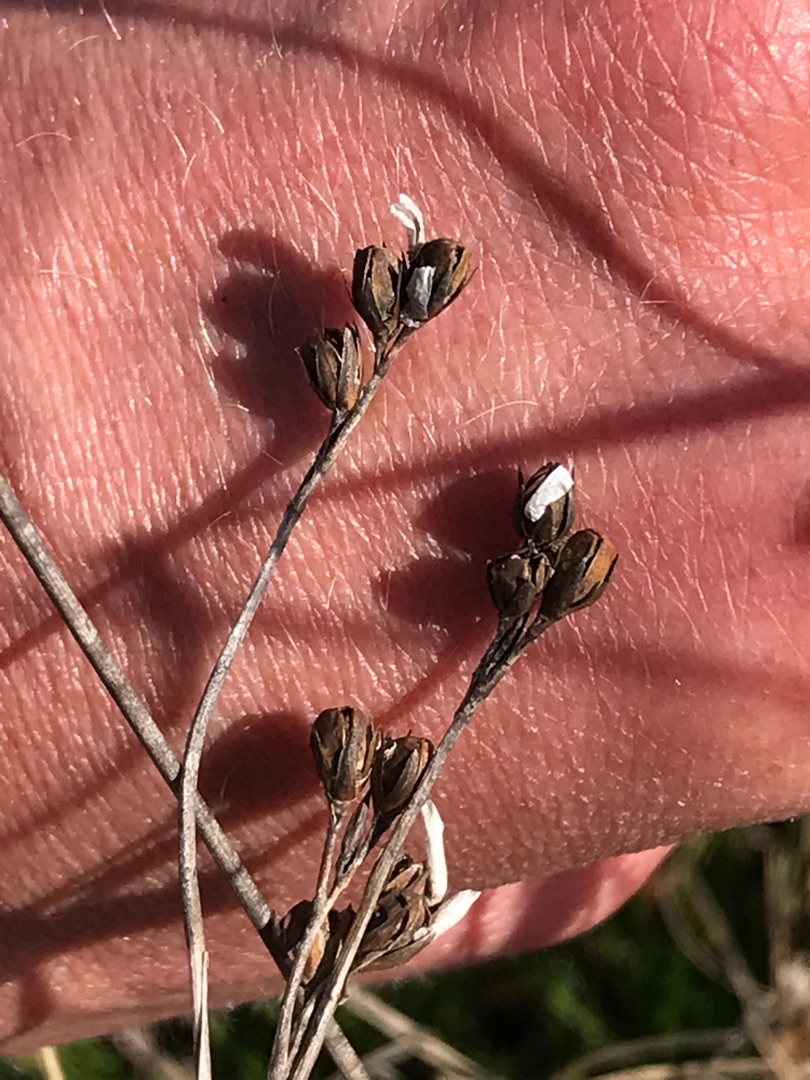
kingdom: Plantae
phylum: Tracheophyta
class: Liliopsida
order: Poales
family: Juncaceae
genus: Juncus
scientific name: Juncus squarrosus
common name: Børste-siv
